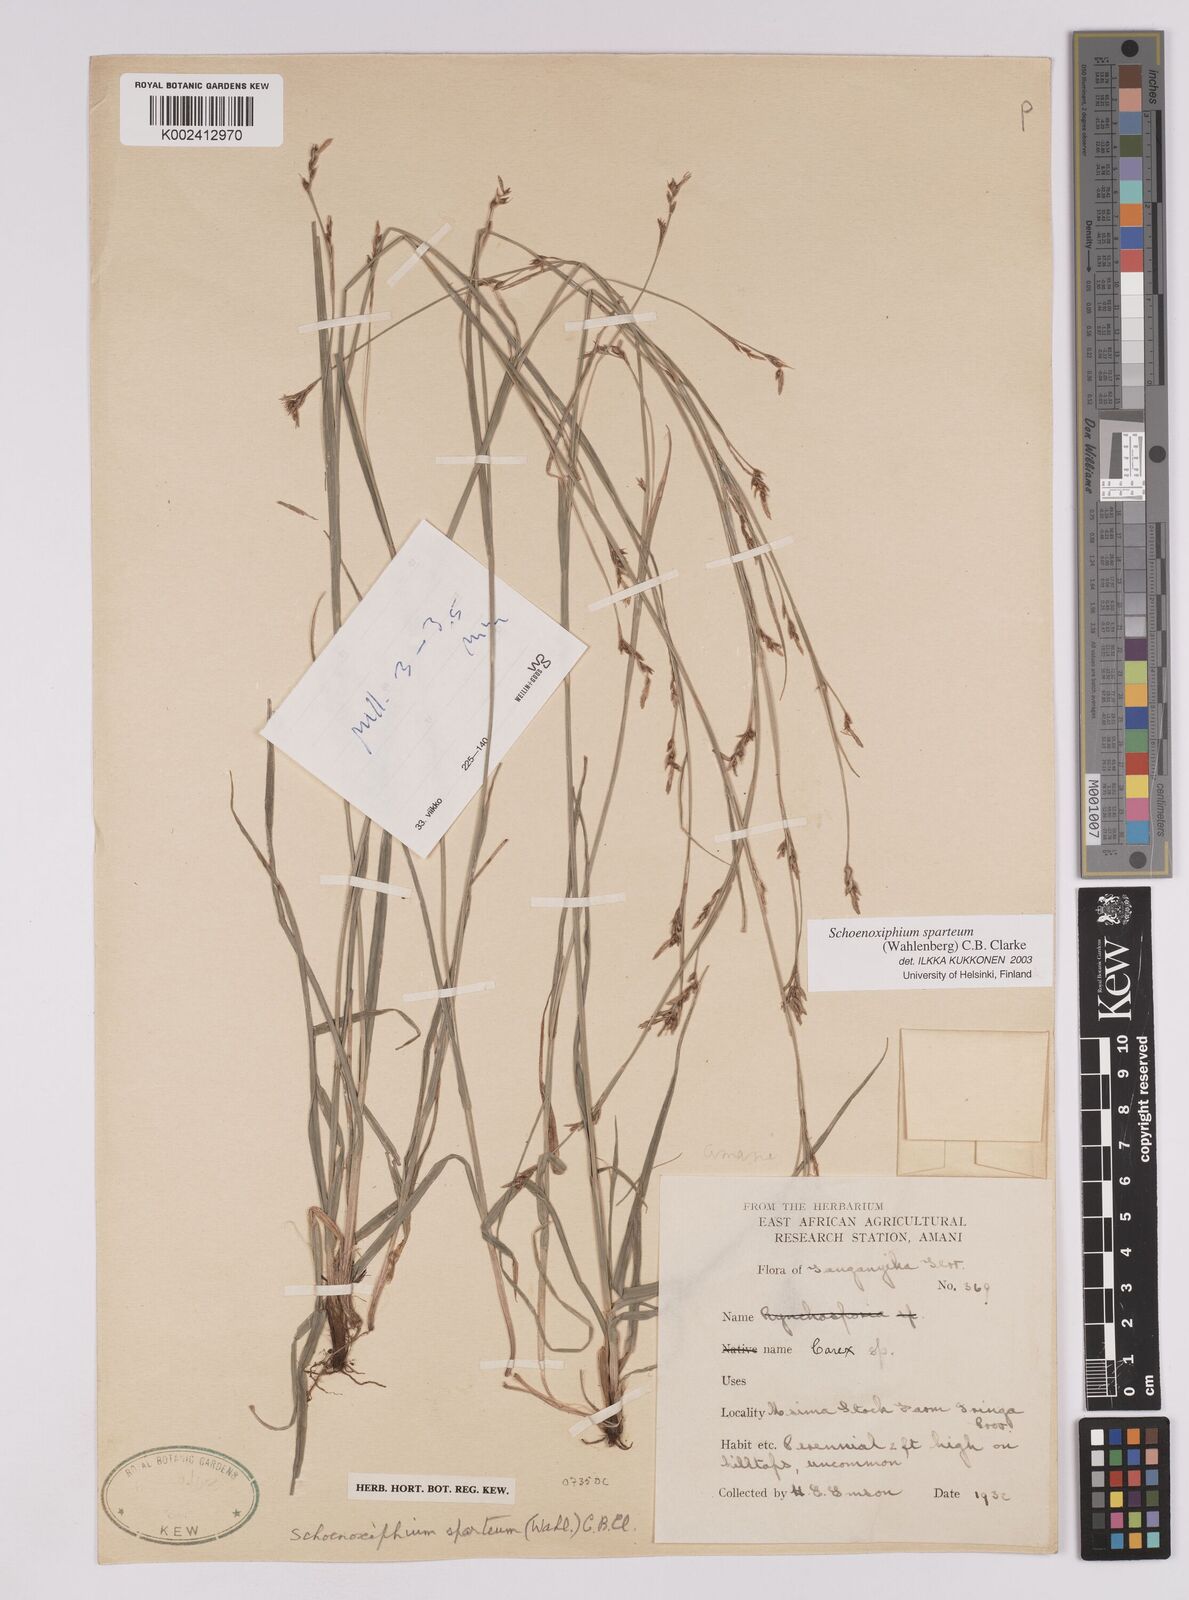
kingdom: Plantae
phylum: Tracheophyta
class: Liliopsida
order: Poales
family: Cyperaceae
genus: Carex
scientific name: Carex spartea
